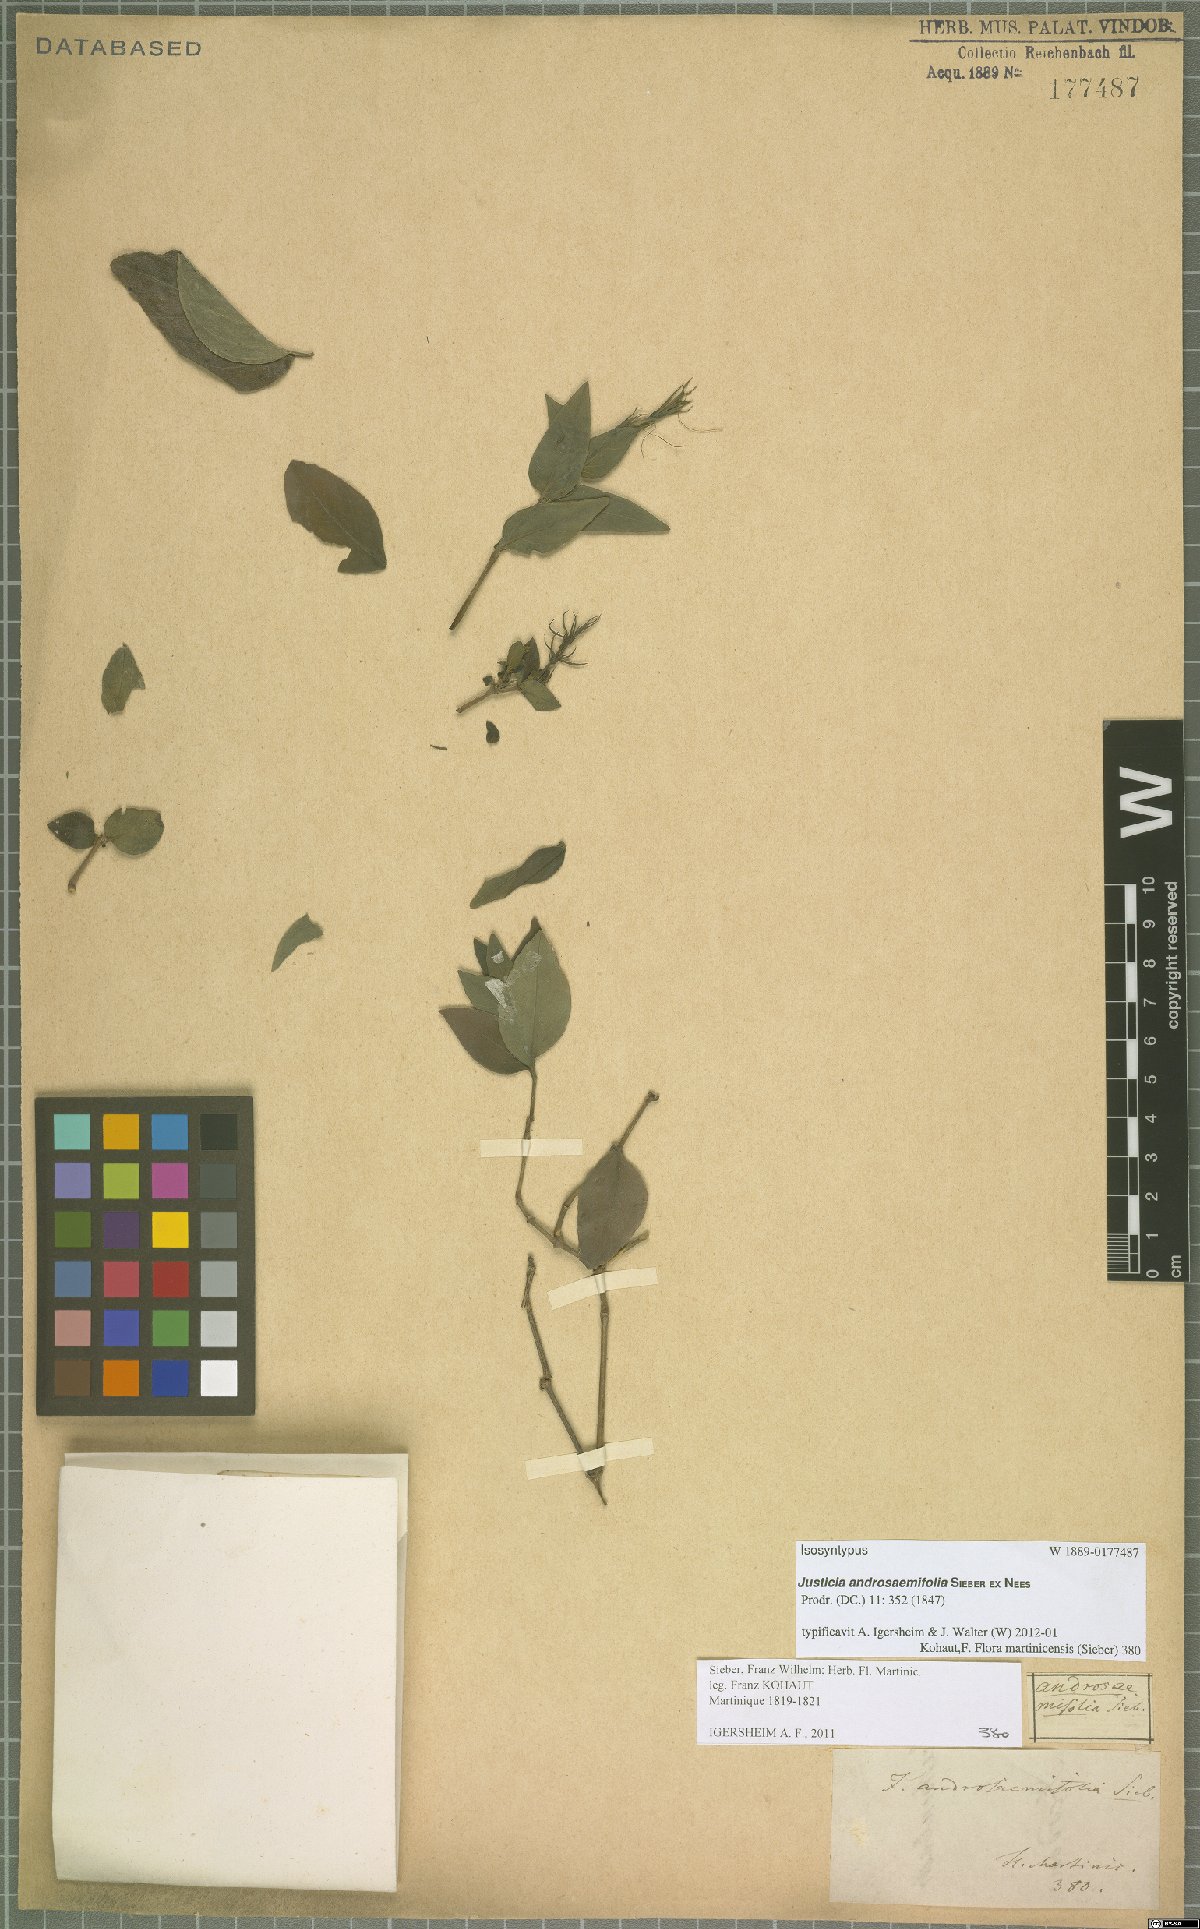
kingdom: Plantae
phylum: Tracheophyta
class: Magnoliopsida
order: Lamiales
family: Acanthaceae
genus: Dianthera
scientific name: Dianthera androsaemifolia
